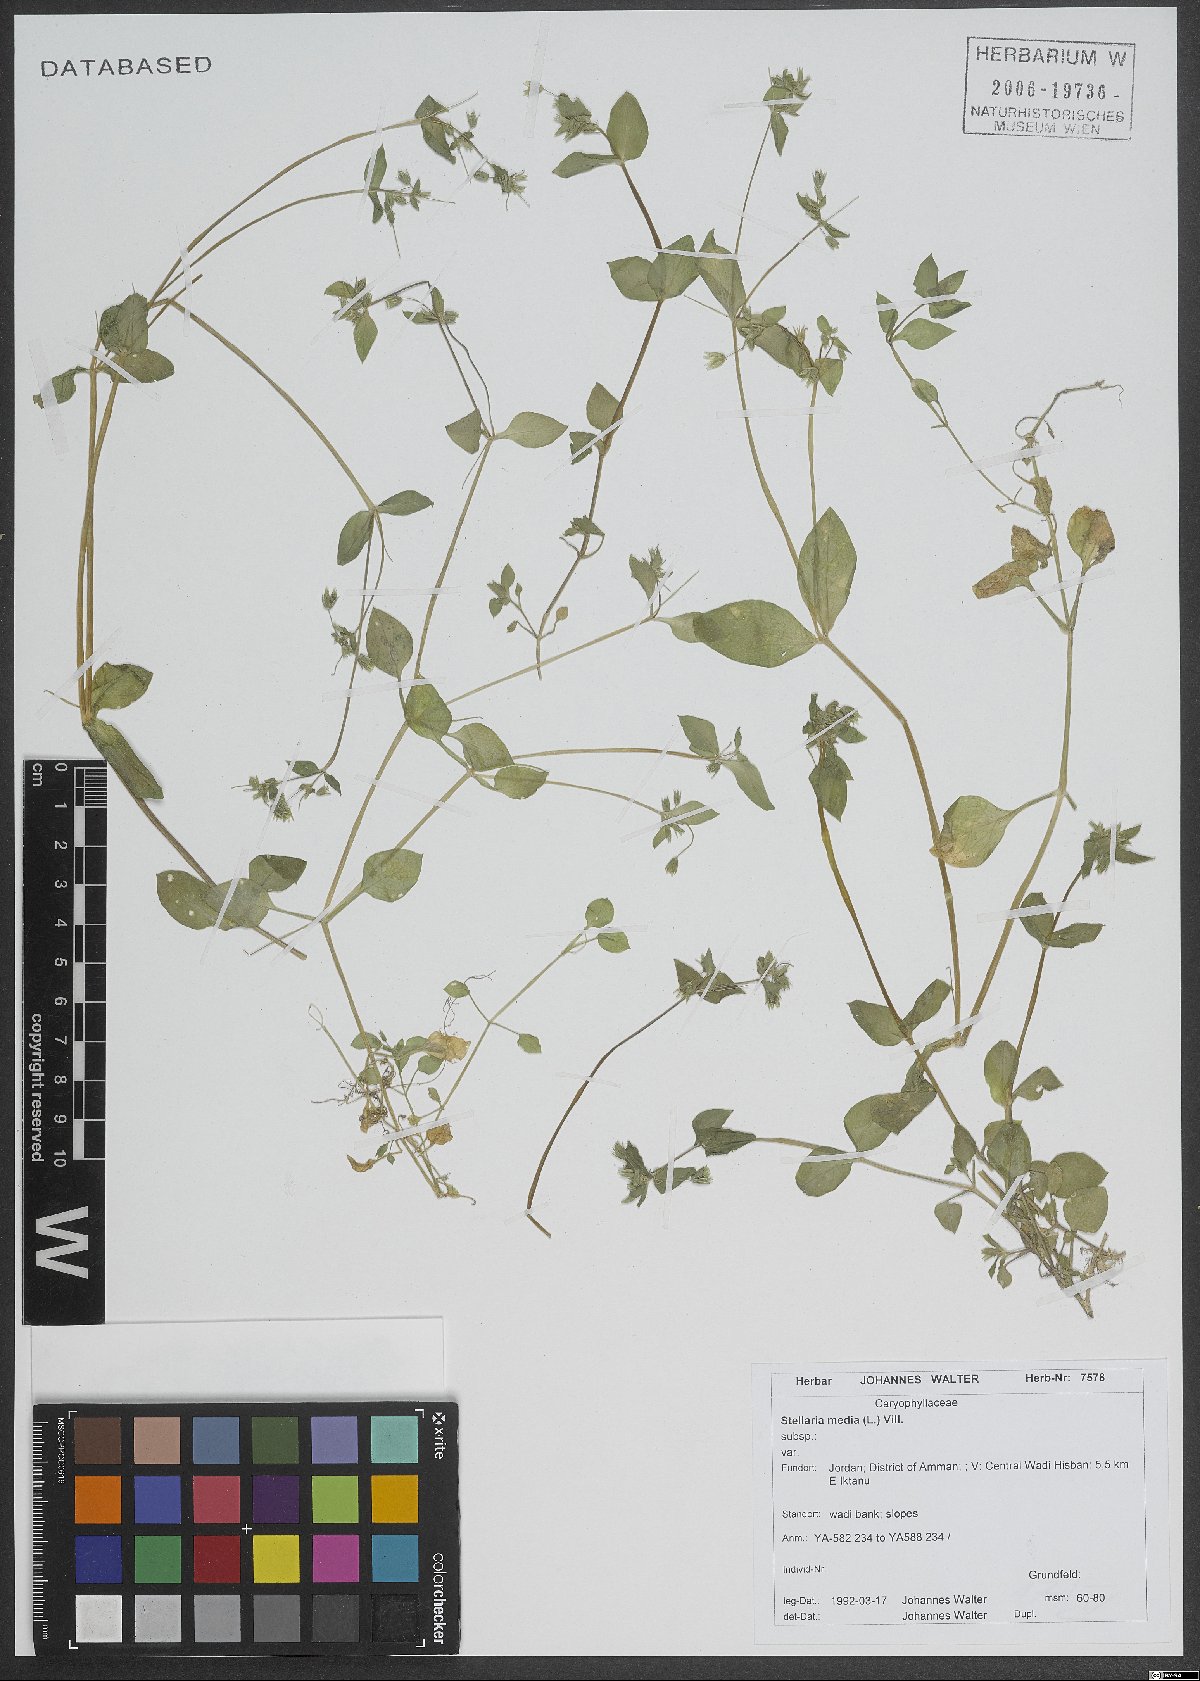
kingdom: Plantae
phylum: Tracheophyta
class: Magnoliopsida
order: Caryophyllales
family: Caryophyllaceae
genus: Stellaria
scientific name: Stellaria apetala
